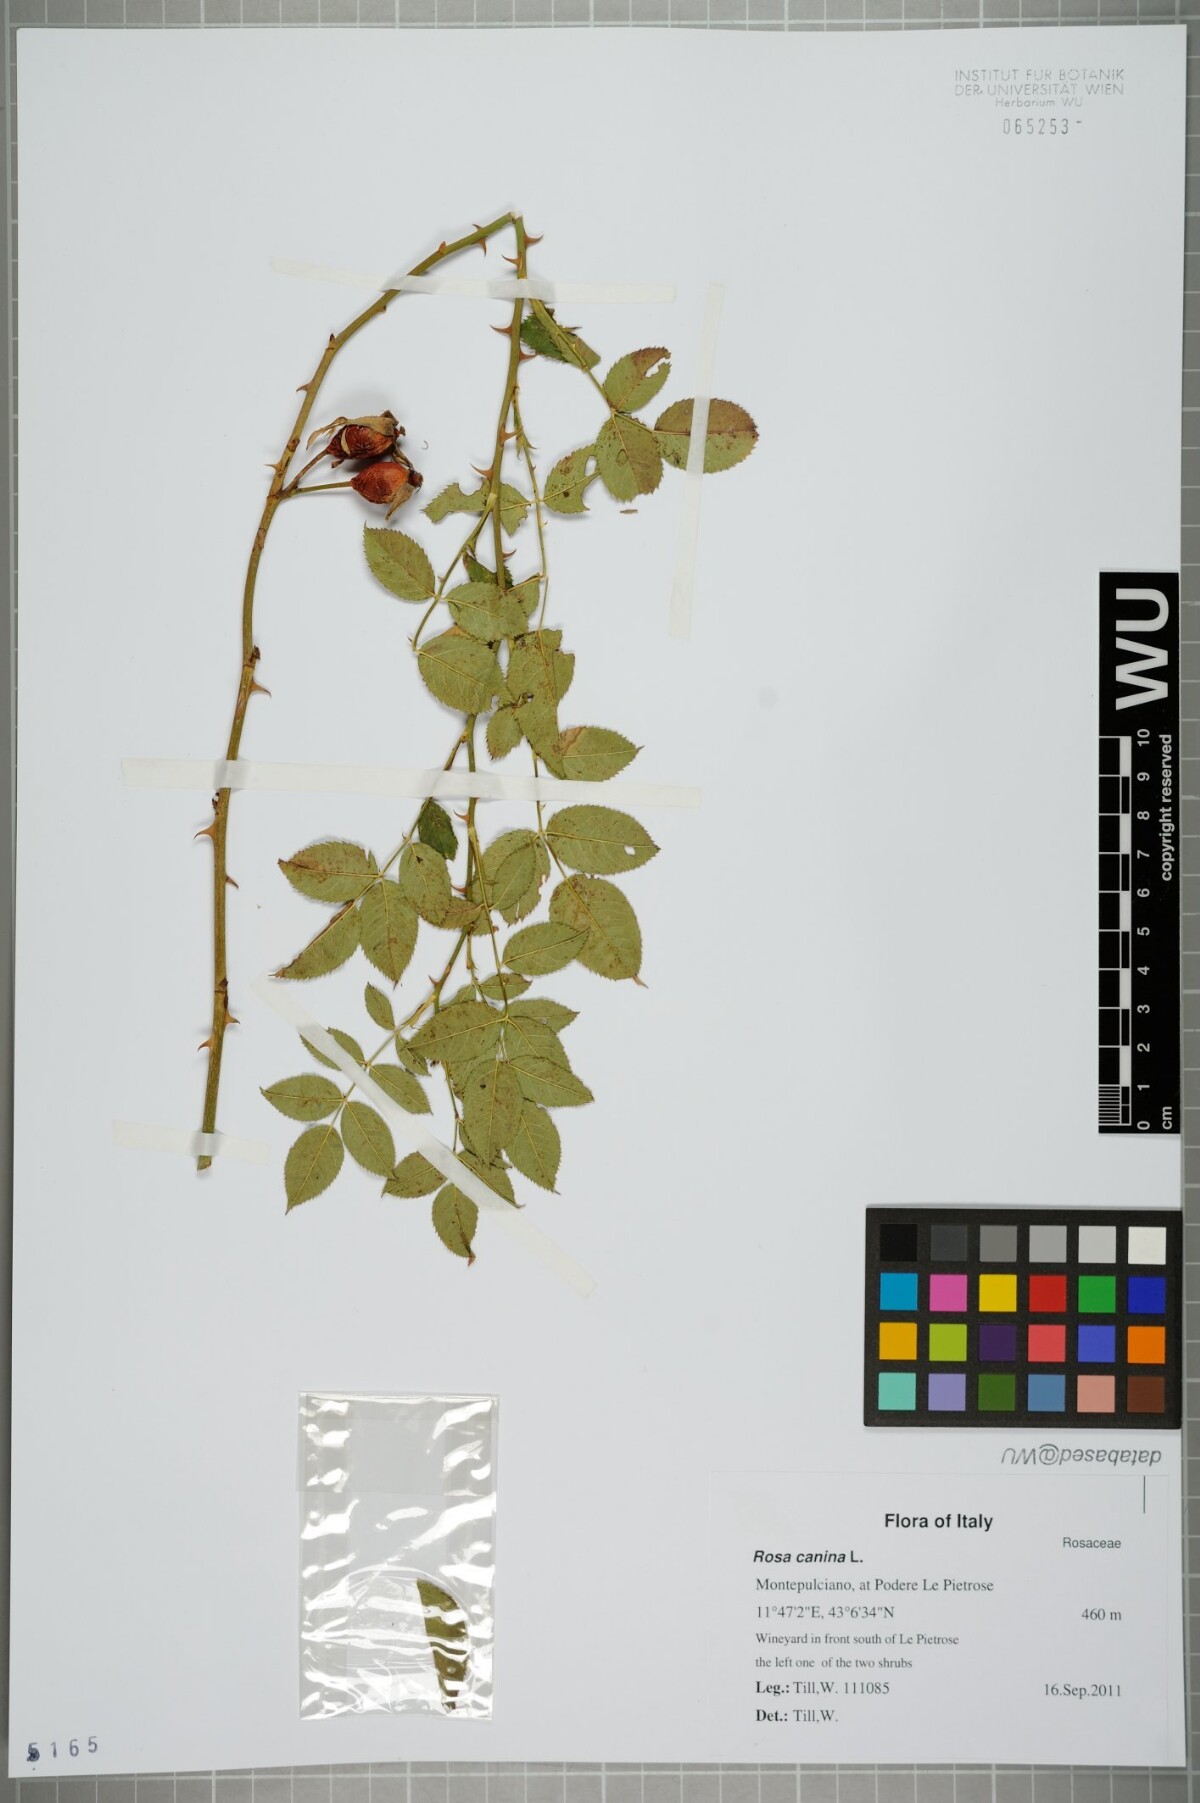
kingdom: Plantae
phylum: Tracheophyta
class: Magnoliopsida
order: Rosales
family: Rosaceae
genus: Rosa
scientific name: Rosa canina
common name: Dog rose
